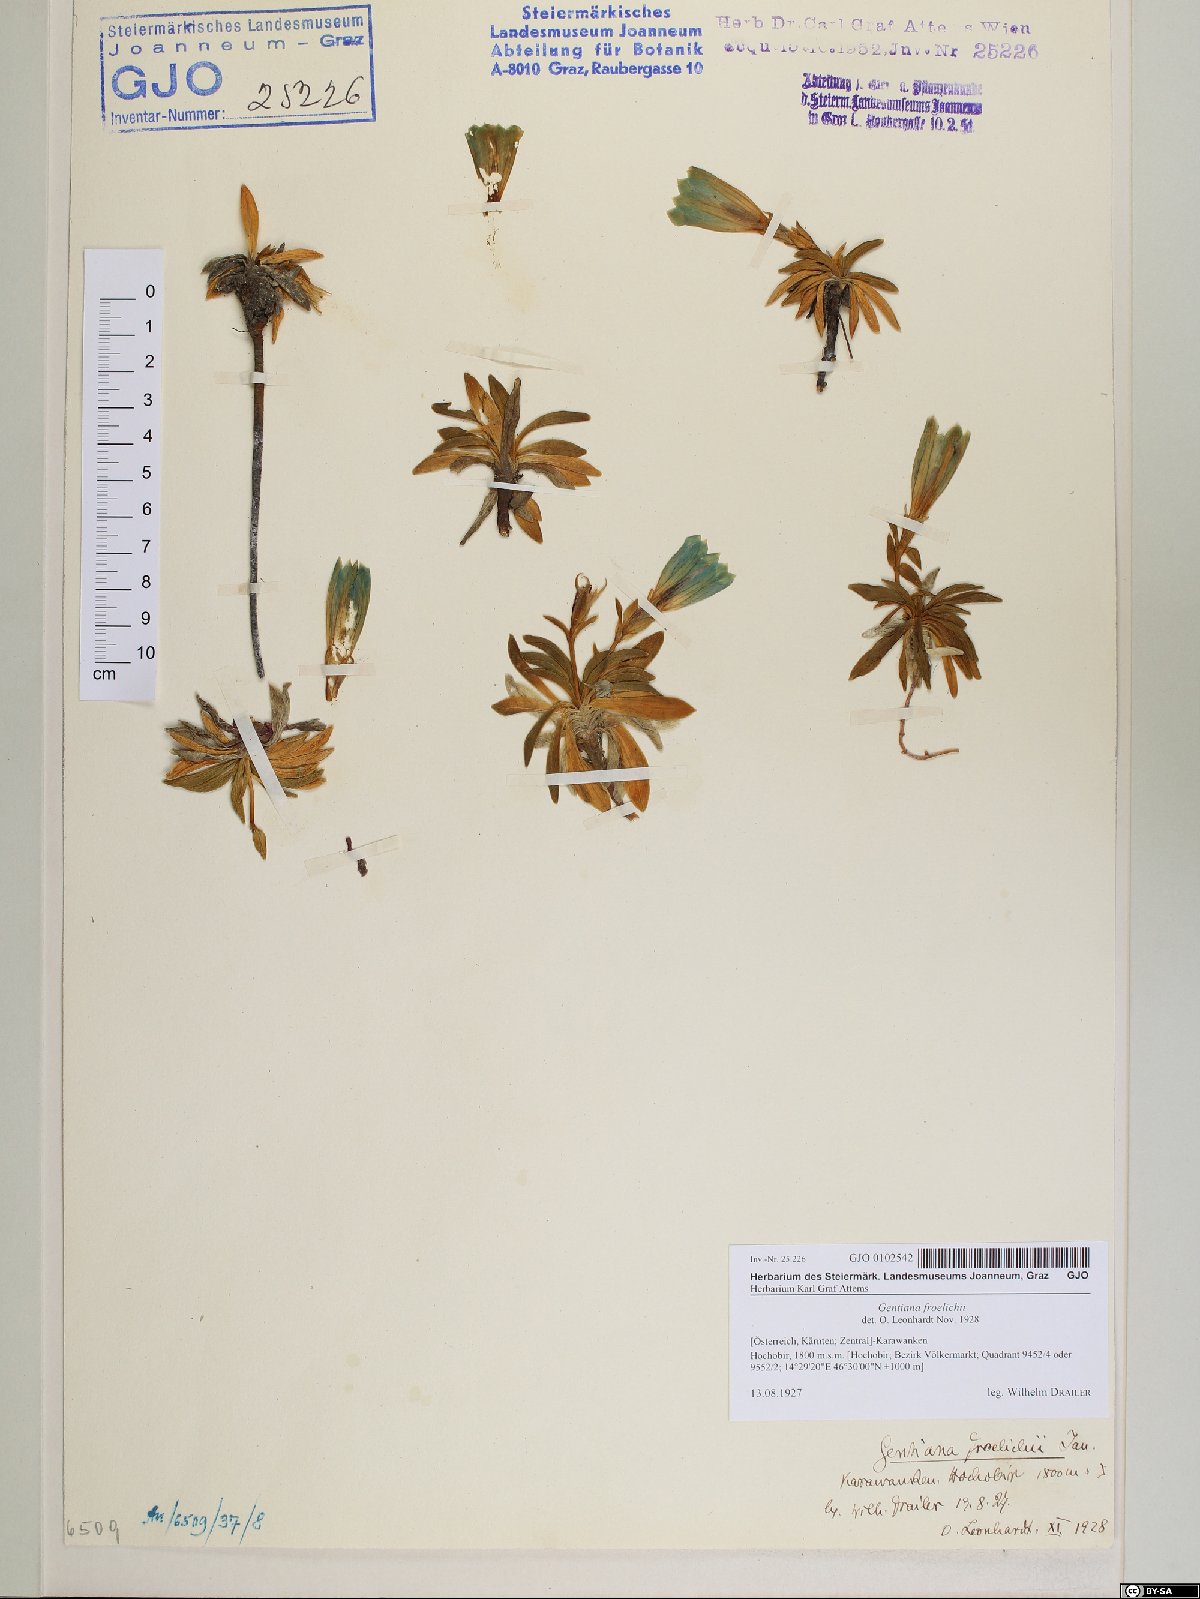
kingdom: Plantae
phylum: Tracheophyta
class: Magnoliopsida
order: Gentianales
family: Gentianaceae
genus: Gentiana
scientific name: Gentiana froelichii
